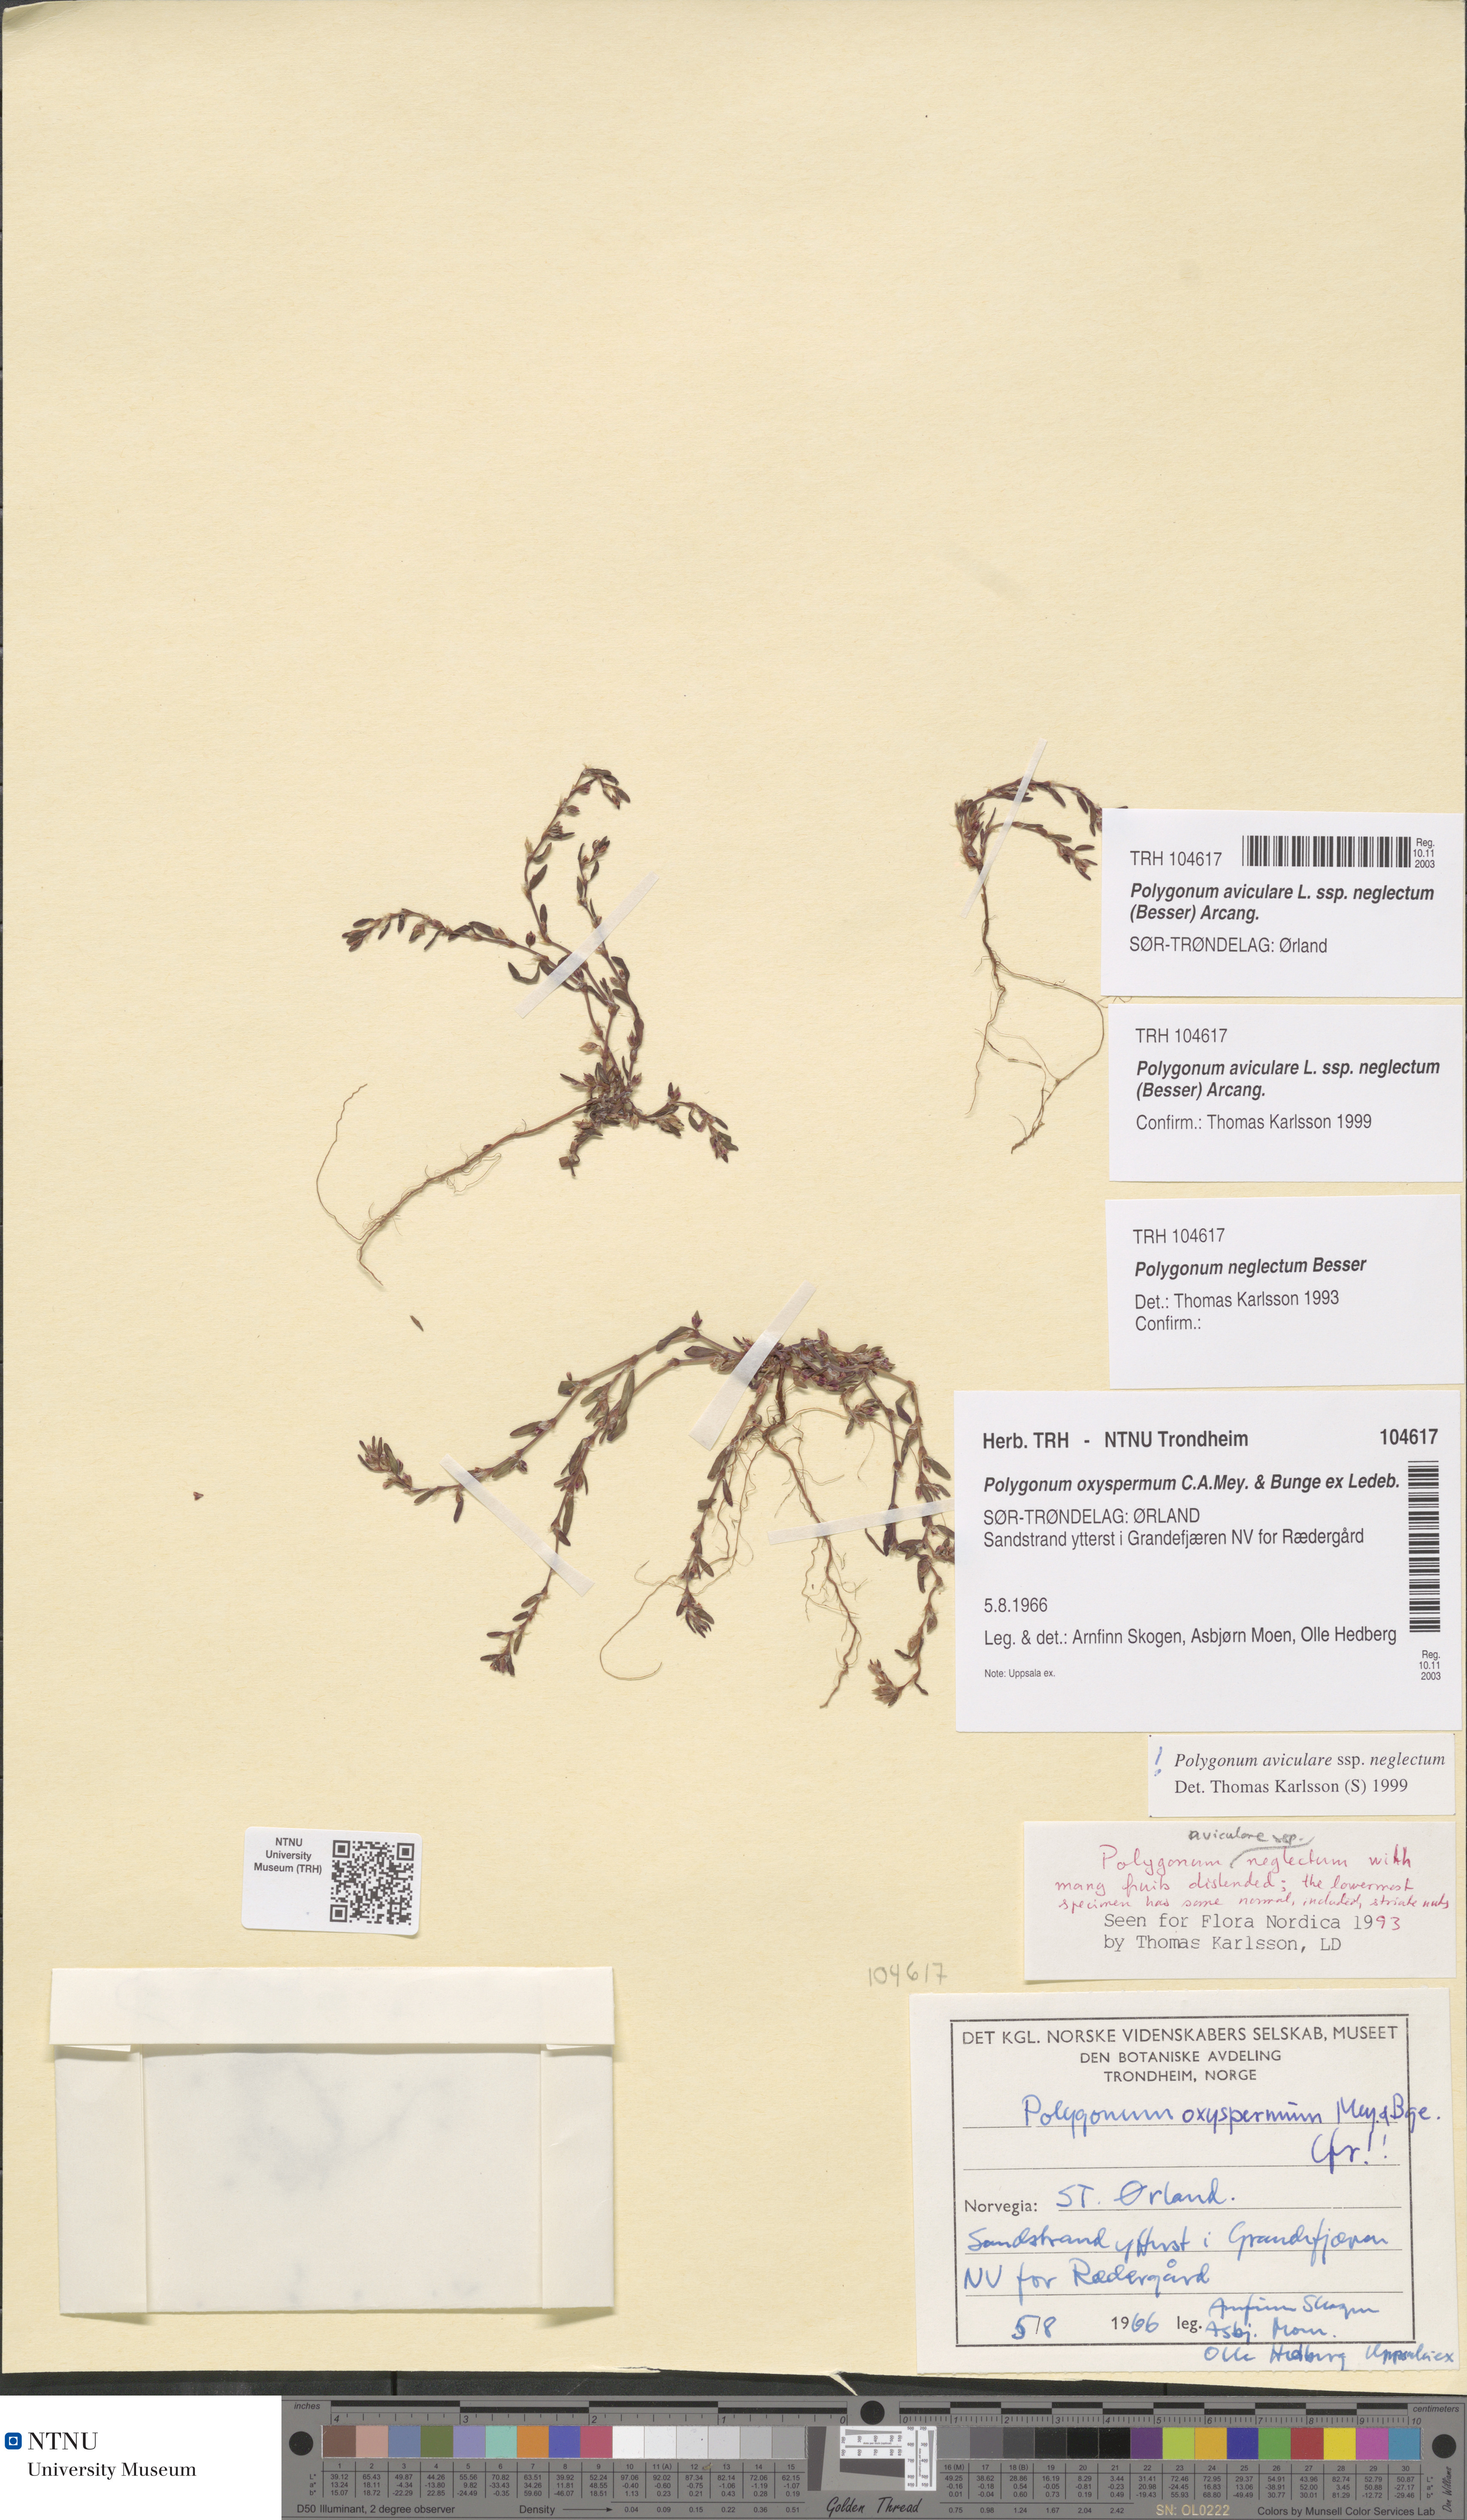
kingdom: Plantae
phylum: Tracheophyta
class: Magnoliopsida
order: Caryophyllales
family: Polygonaceae
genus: Polygonum
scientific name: Polygonum aviculare
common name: Prostrate knotweed
